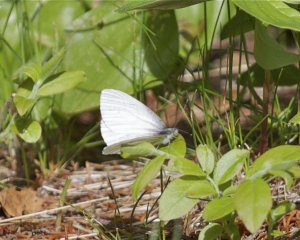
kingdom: Animalia
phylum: Arthropoda
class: Insecta
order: Lepidoptera
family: Pieridae
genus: Pieris
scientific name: Pieris oleracea
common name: Mustard White
